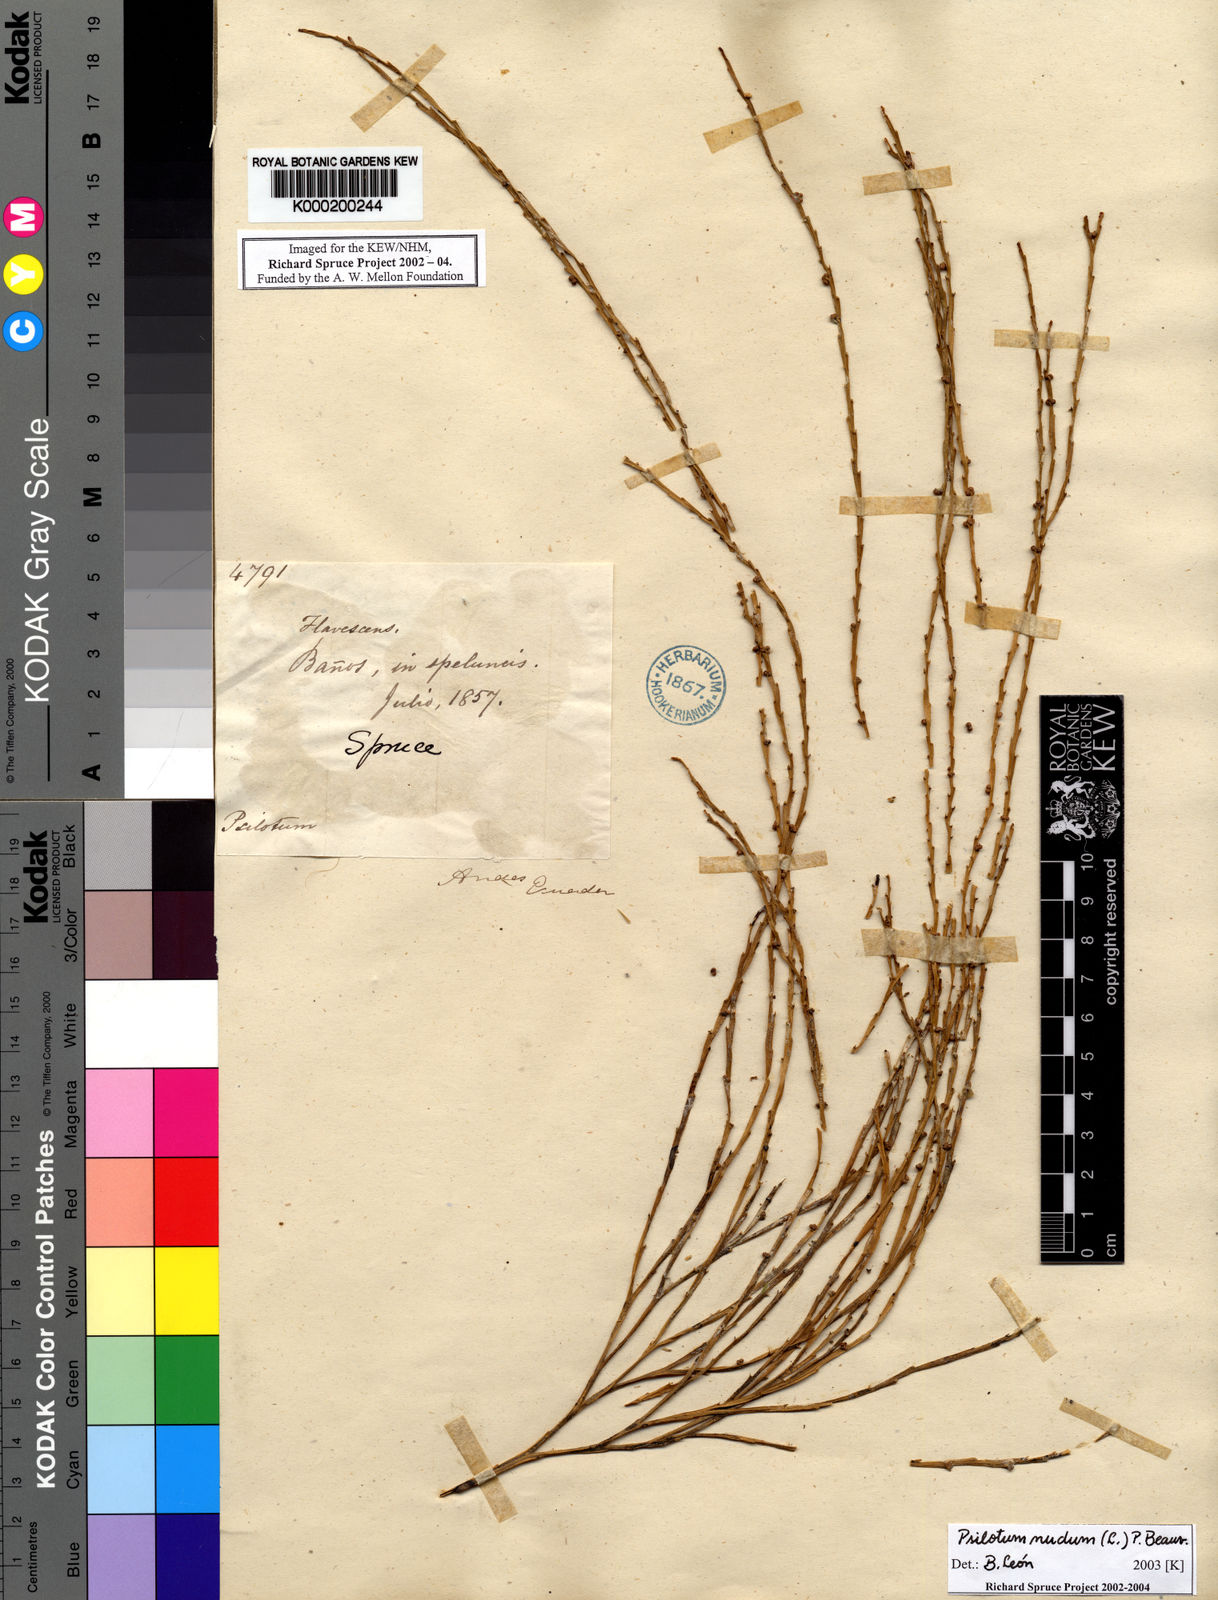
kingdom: Plantae
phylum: Tracheophyta
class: Polypodiopsida
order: Psilotales
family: Psilotaceae
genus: Psilotum
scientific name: Psilotum nudum
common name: Skeleton fork fern
